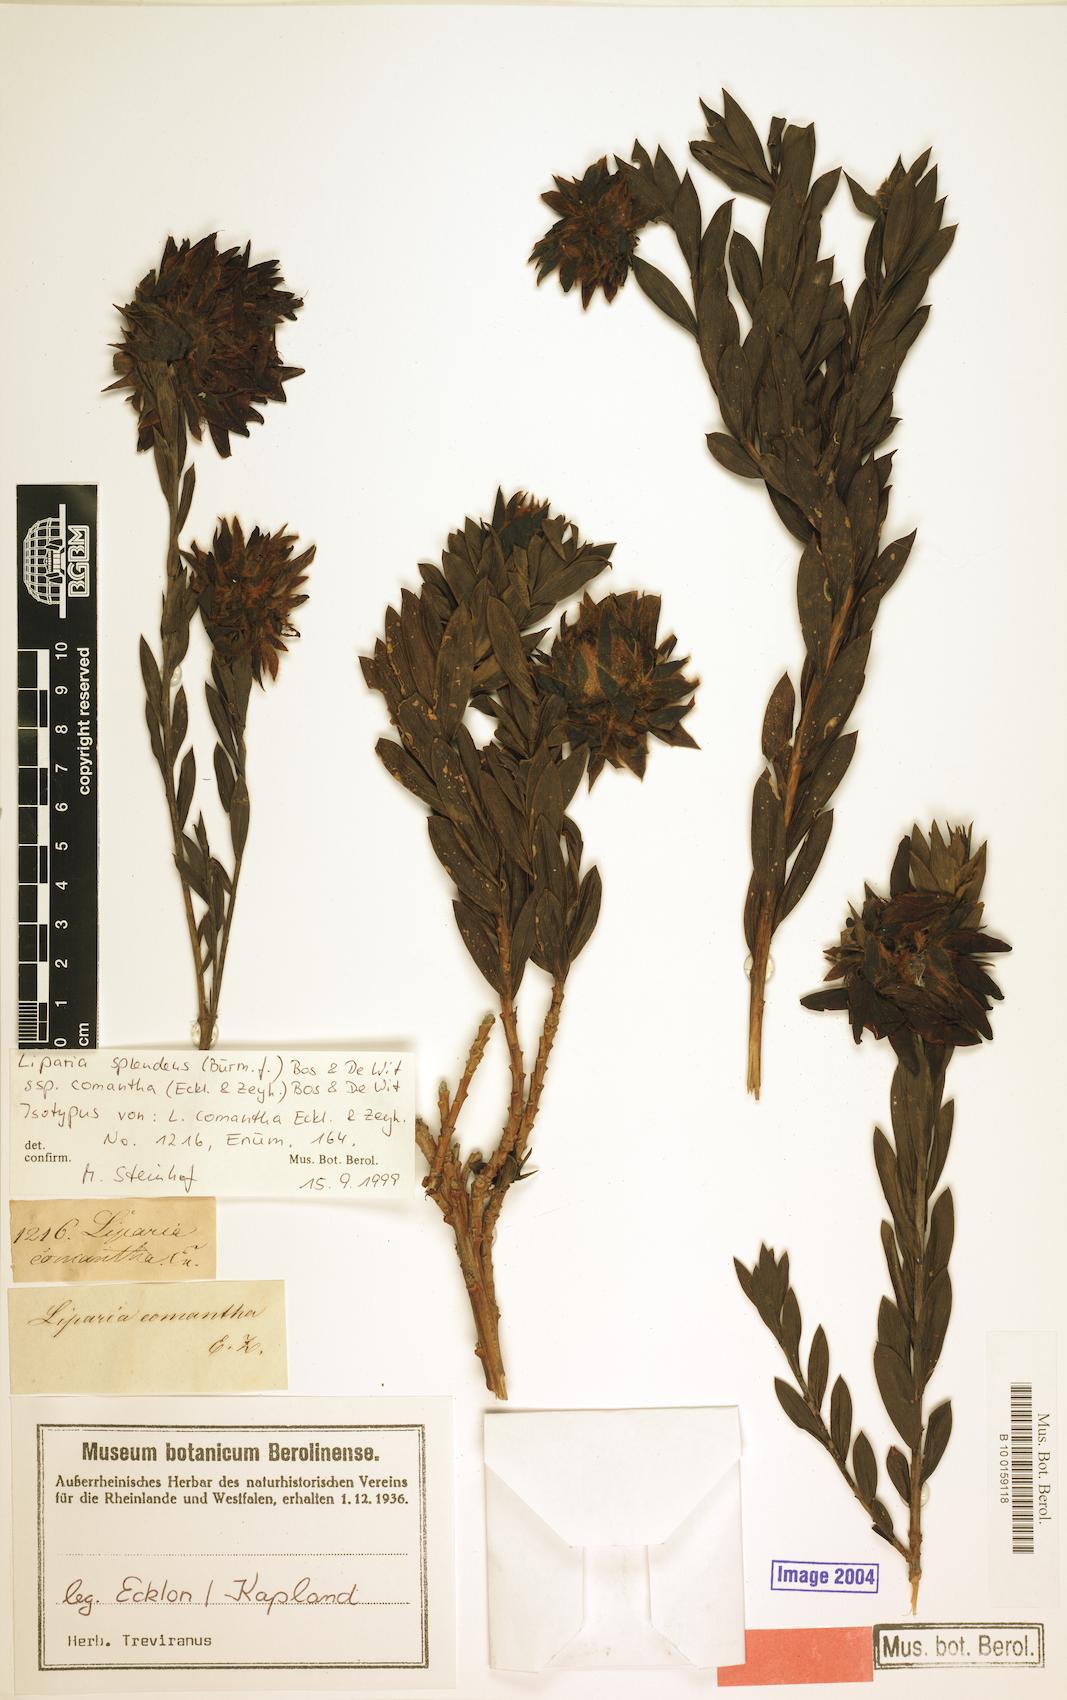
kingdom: Plantae
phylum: Tracheophyta
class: Magnoliopsida
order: Fabales
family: Fabaceae
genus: Liparia
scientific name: Liparia splendens
